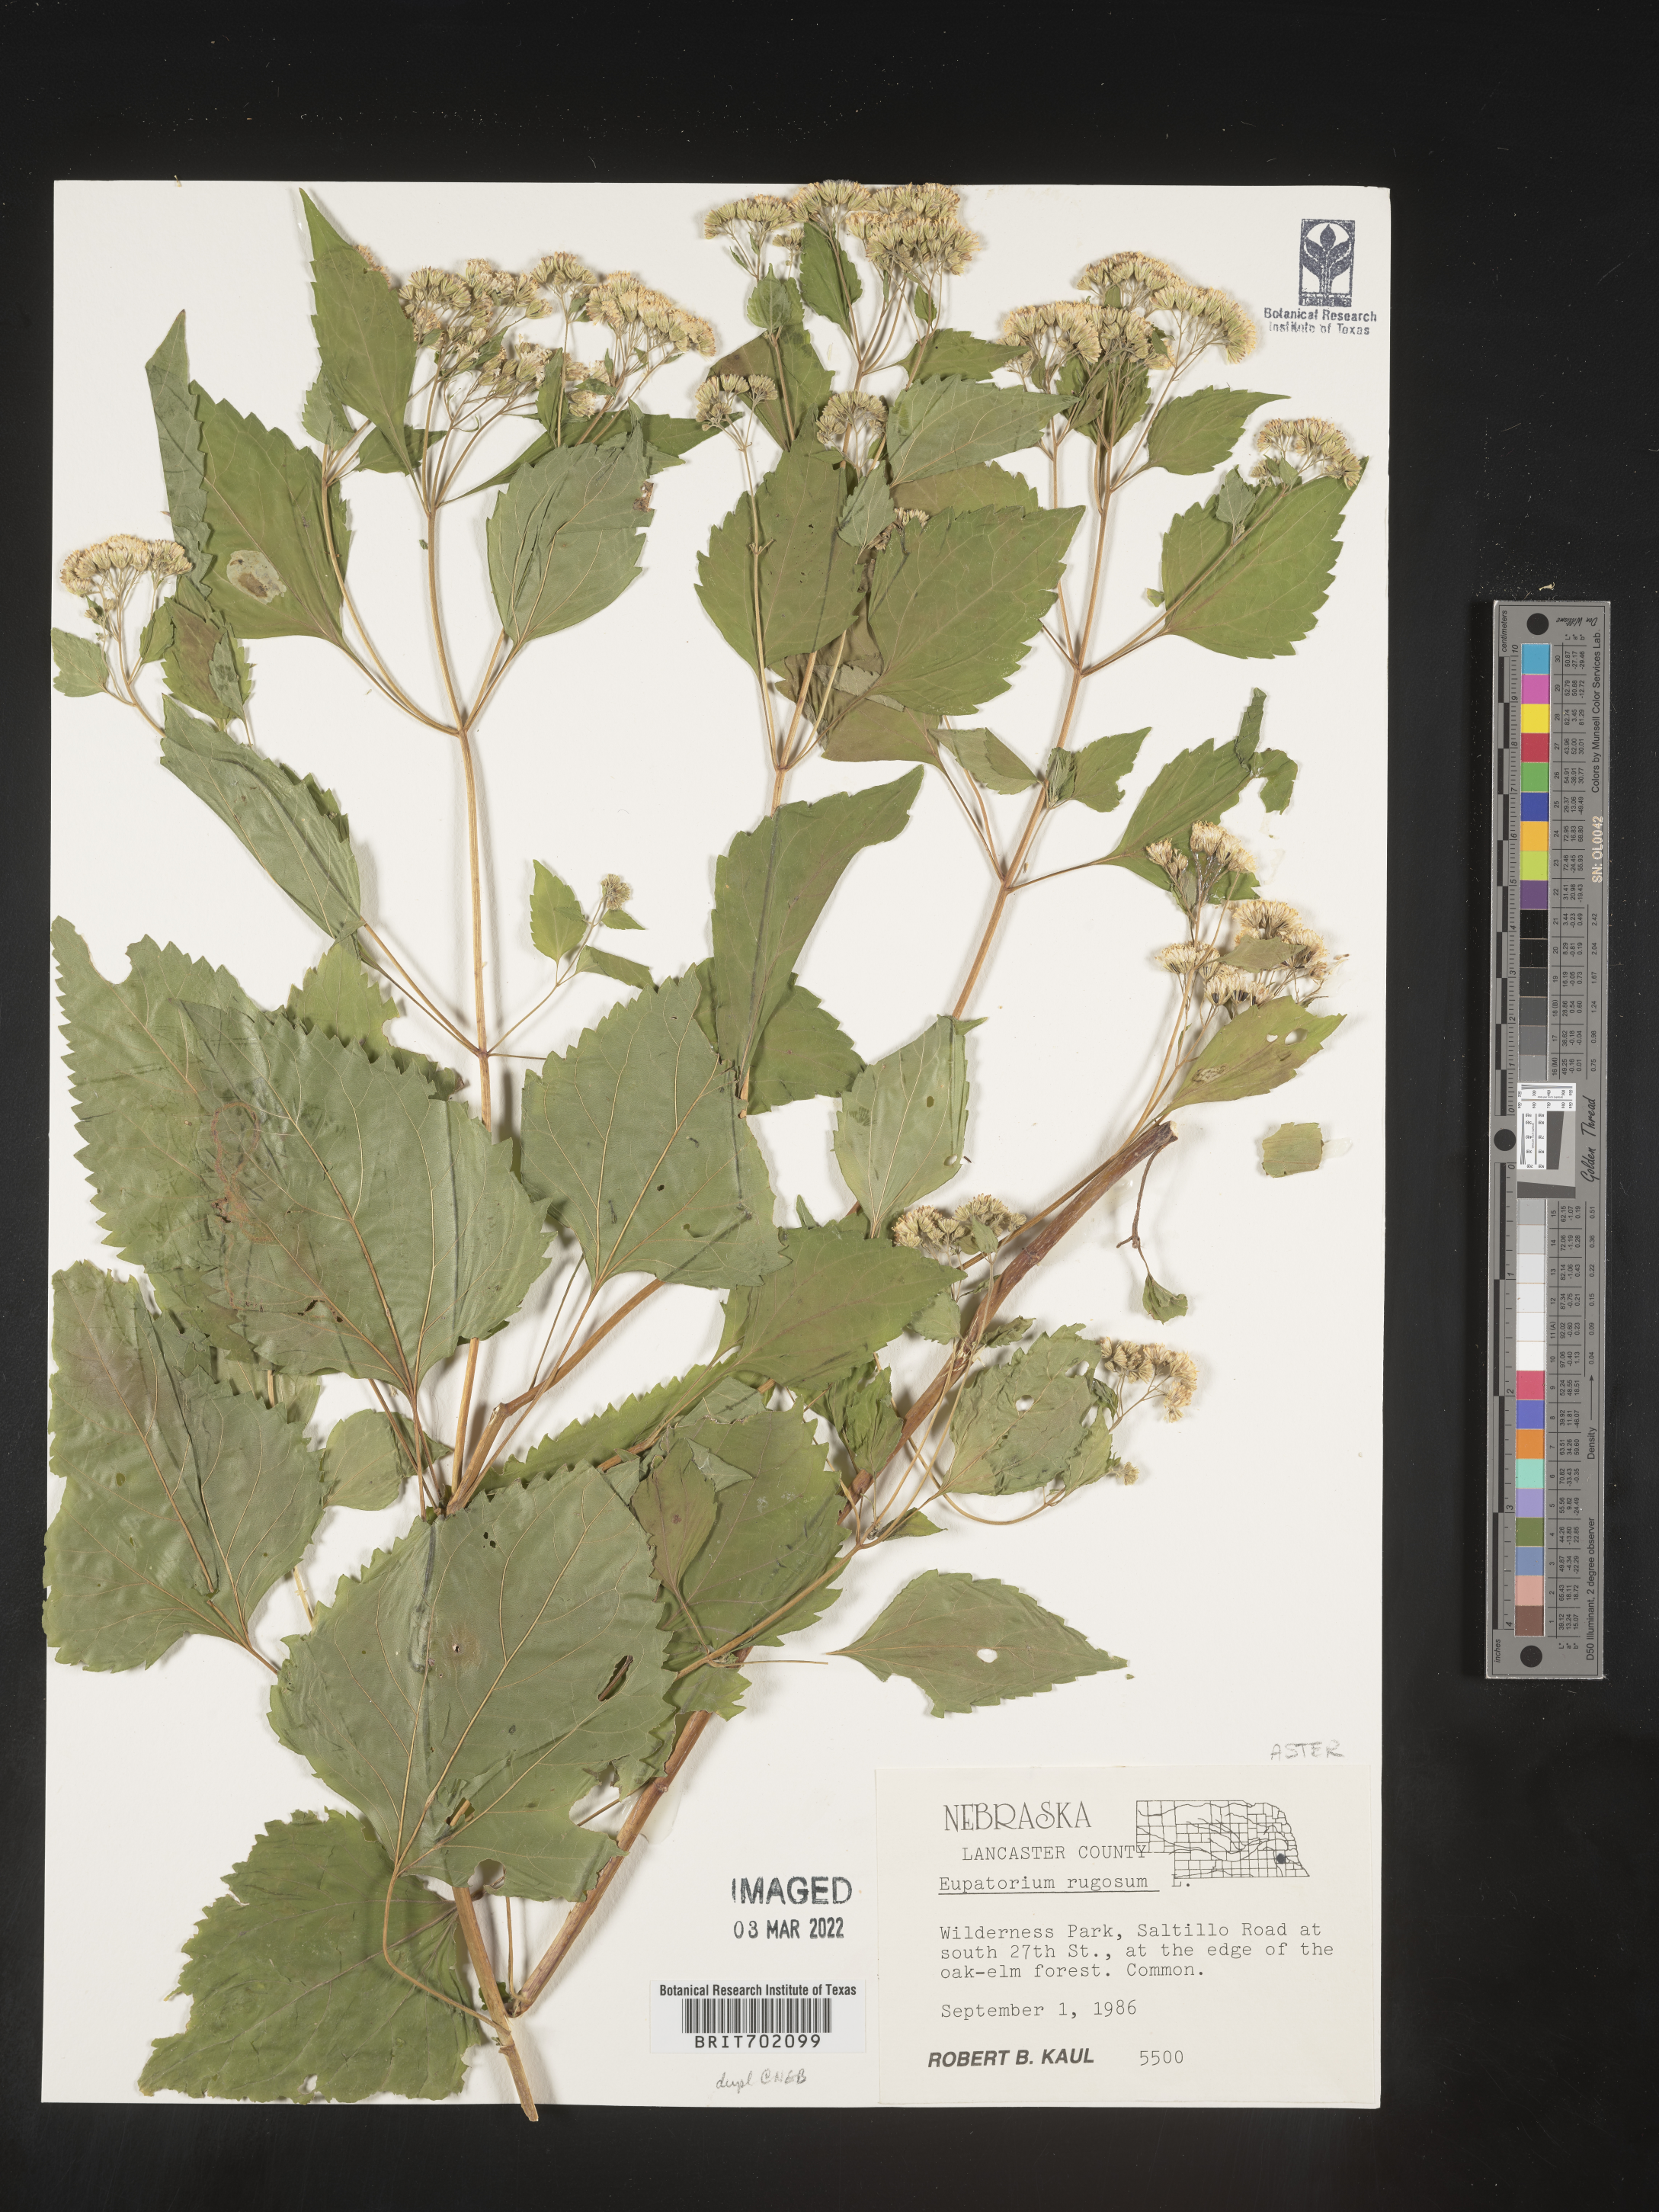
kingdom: Plantae
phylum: Tracheophyta
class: Magnoliopsida
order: Asterales
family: Asteraceae
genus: Cronquistianthus
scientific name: Cronquistianthus bulliferus
